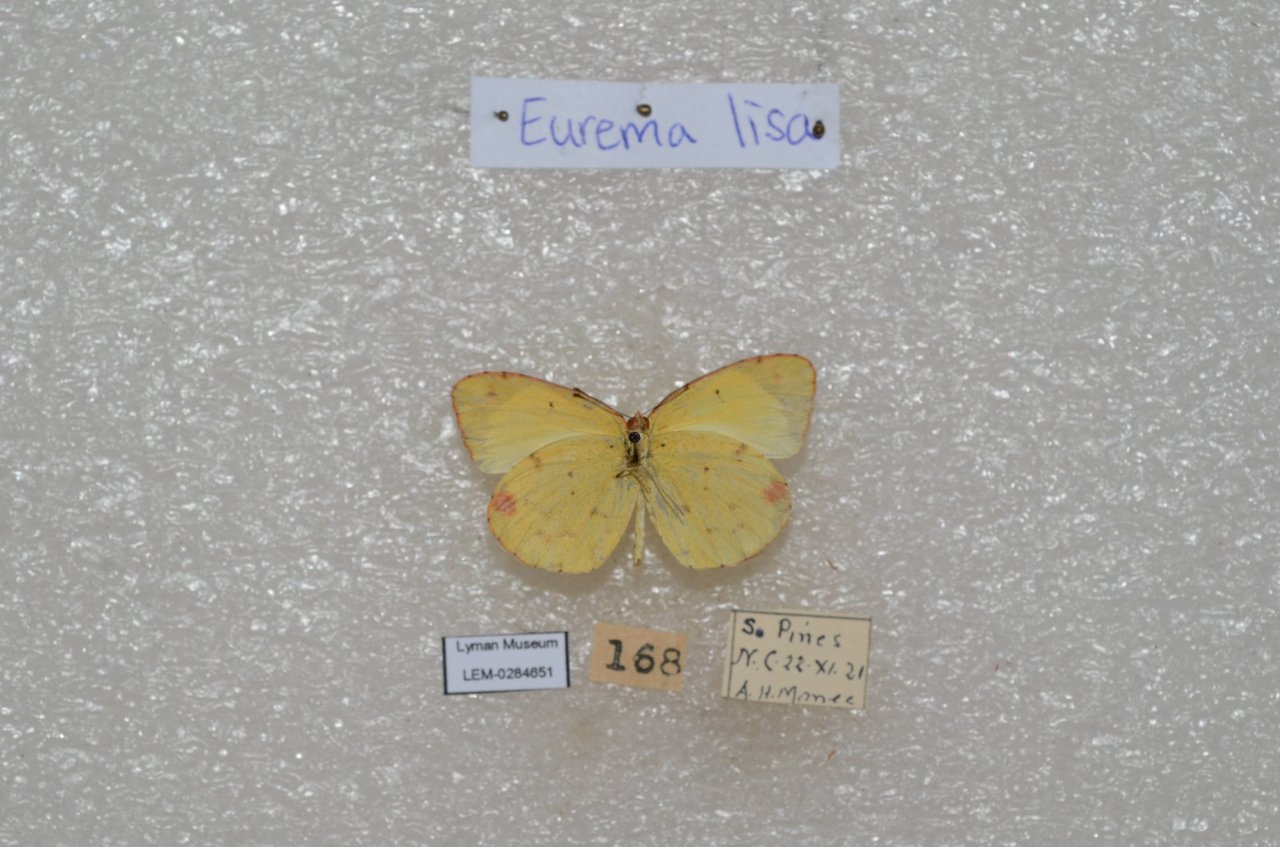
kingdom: Animalia
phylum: Arthropoda
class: Insecta
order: Lepidoptera
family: Pieridae
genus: Pyrisitia
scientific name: Pyrisitia lisa
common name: Little Yellow
